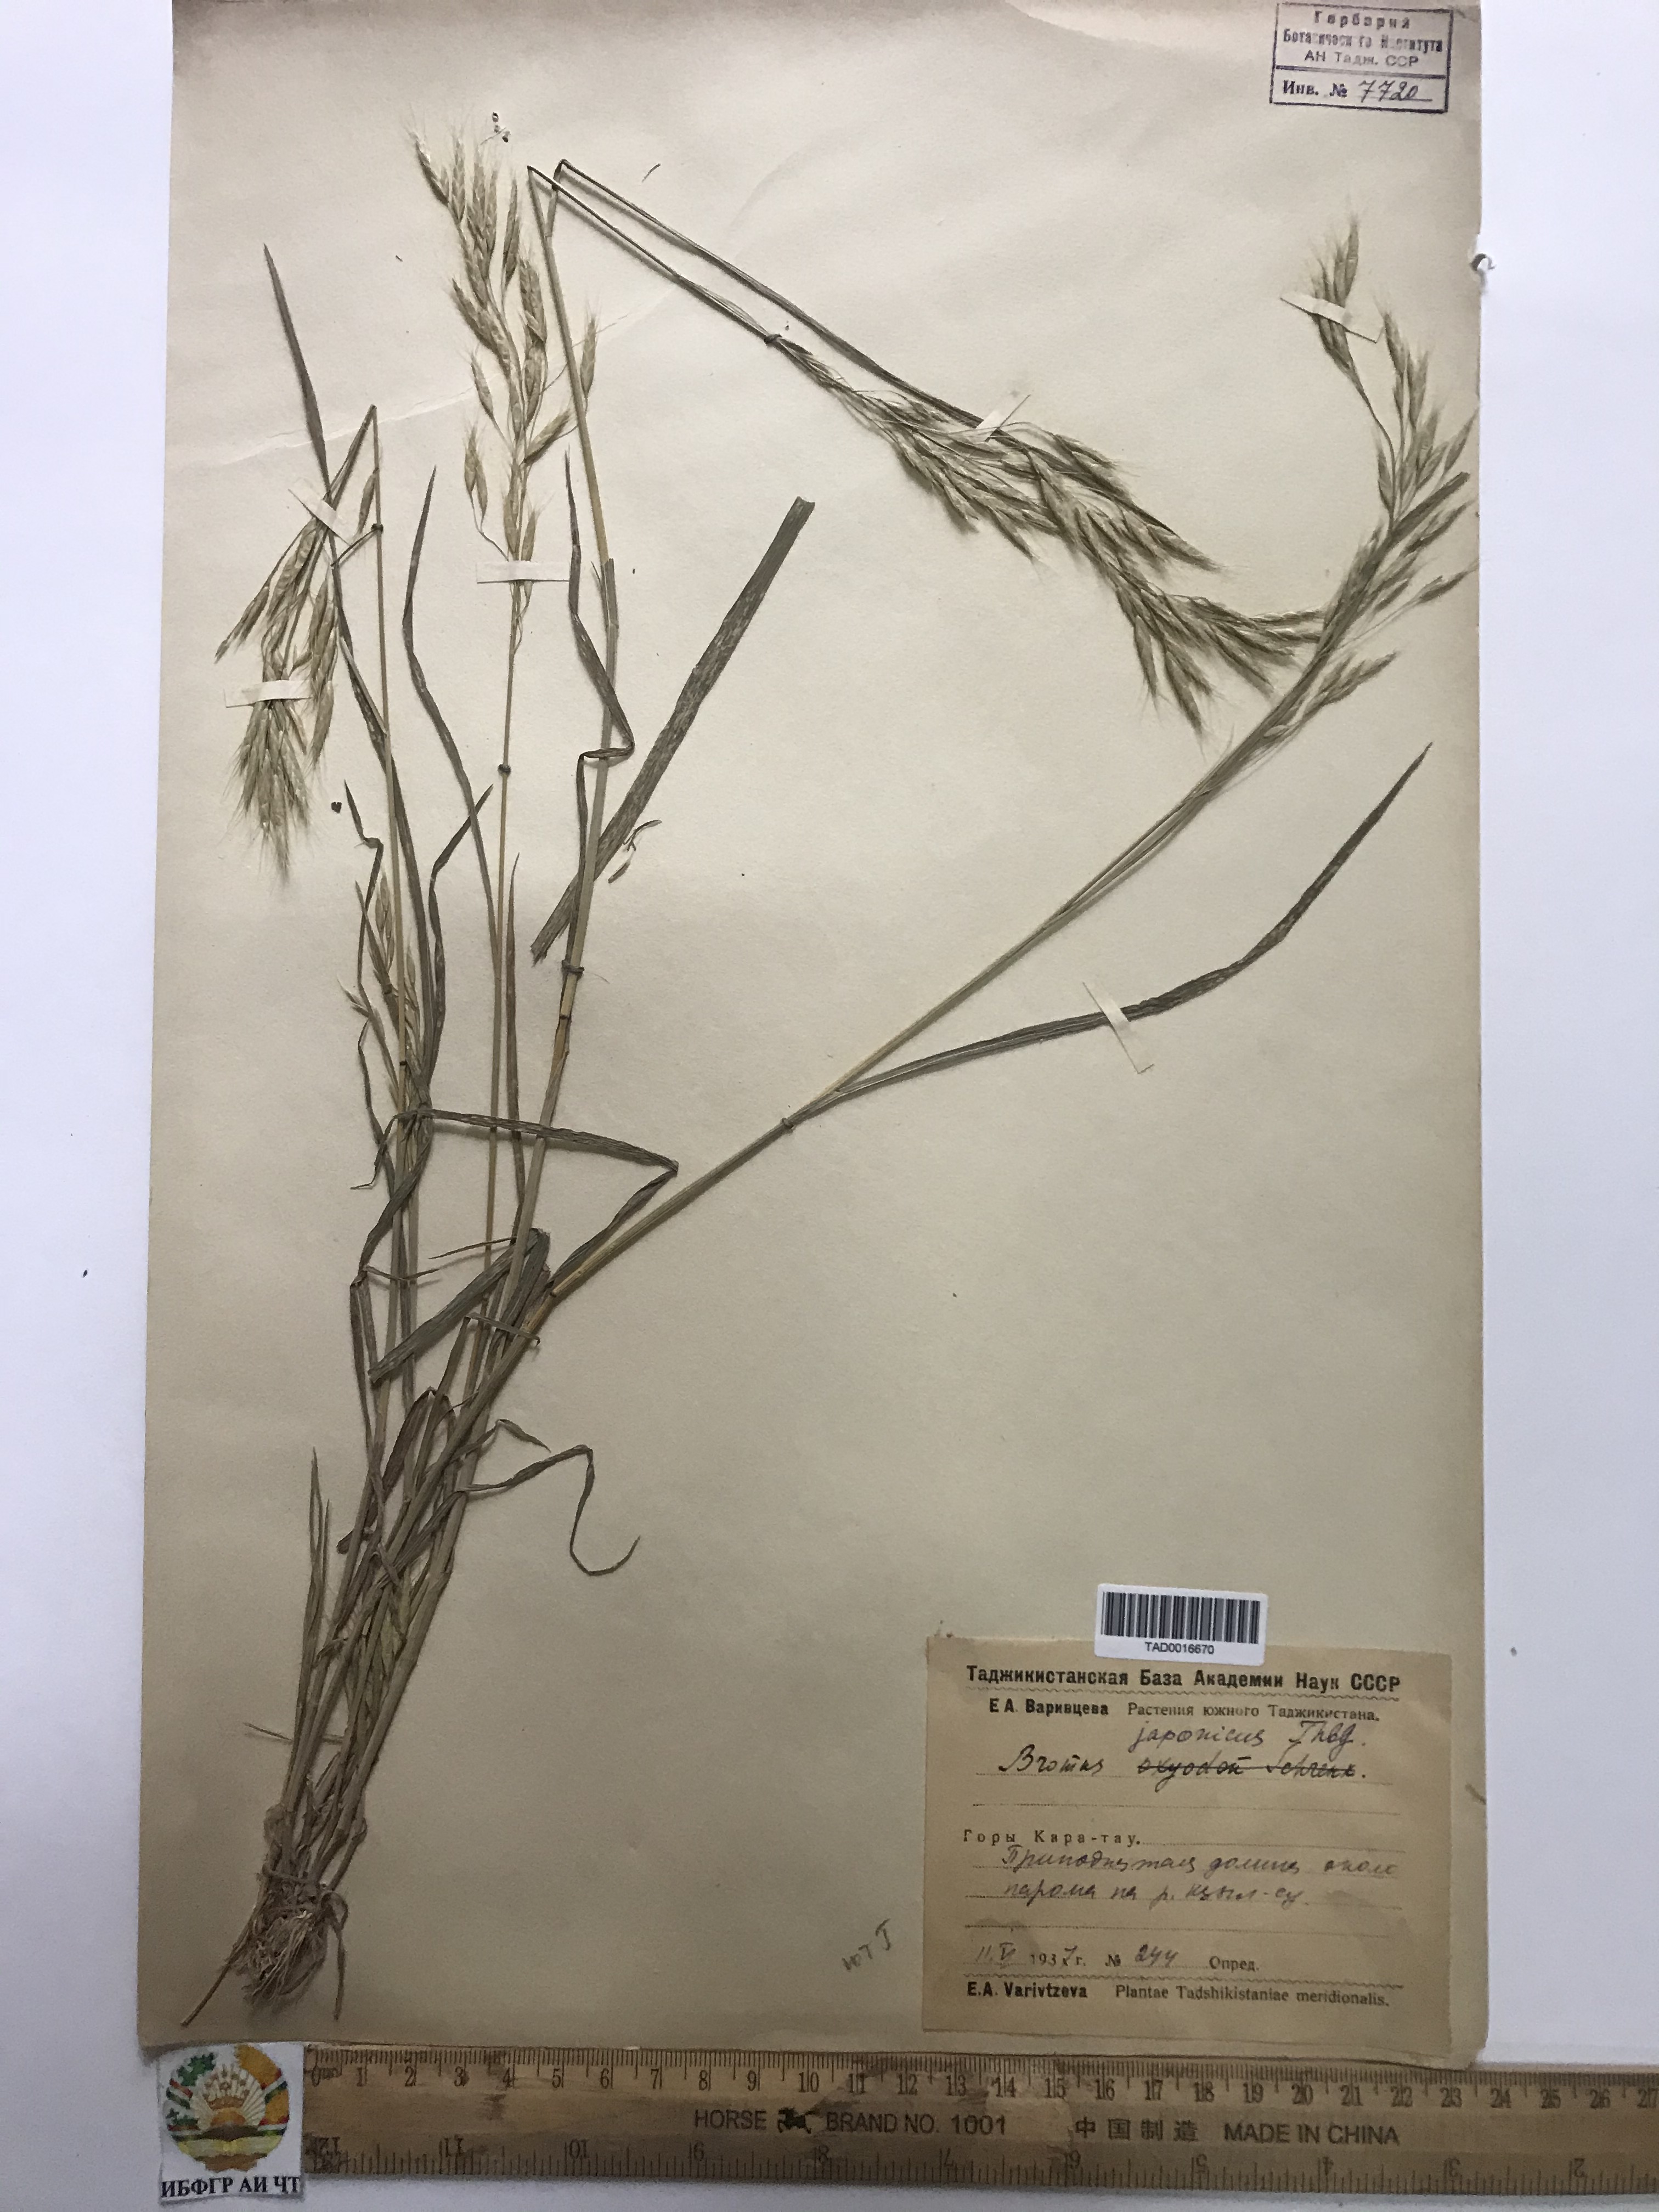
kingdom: Plantae
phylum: Tracheophyta
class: Liliopsida
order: Poales
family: Poaceae
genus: Bromus
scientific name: Bromus japonicus
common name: Japanese brome
